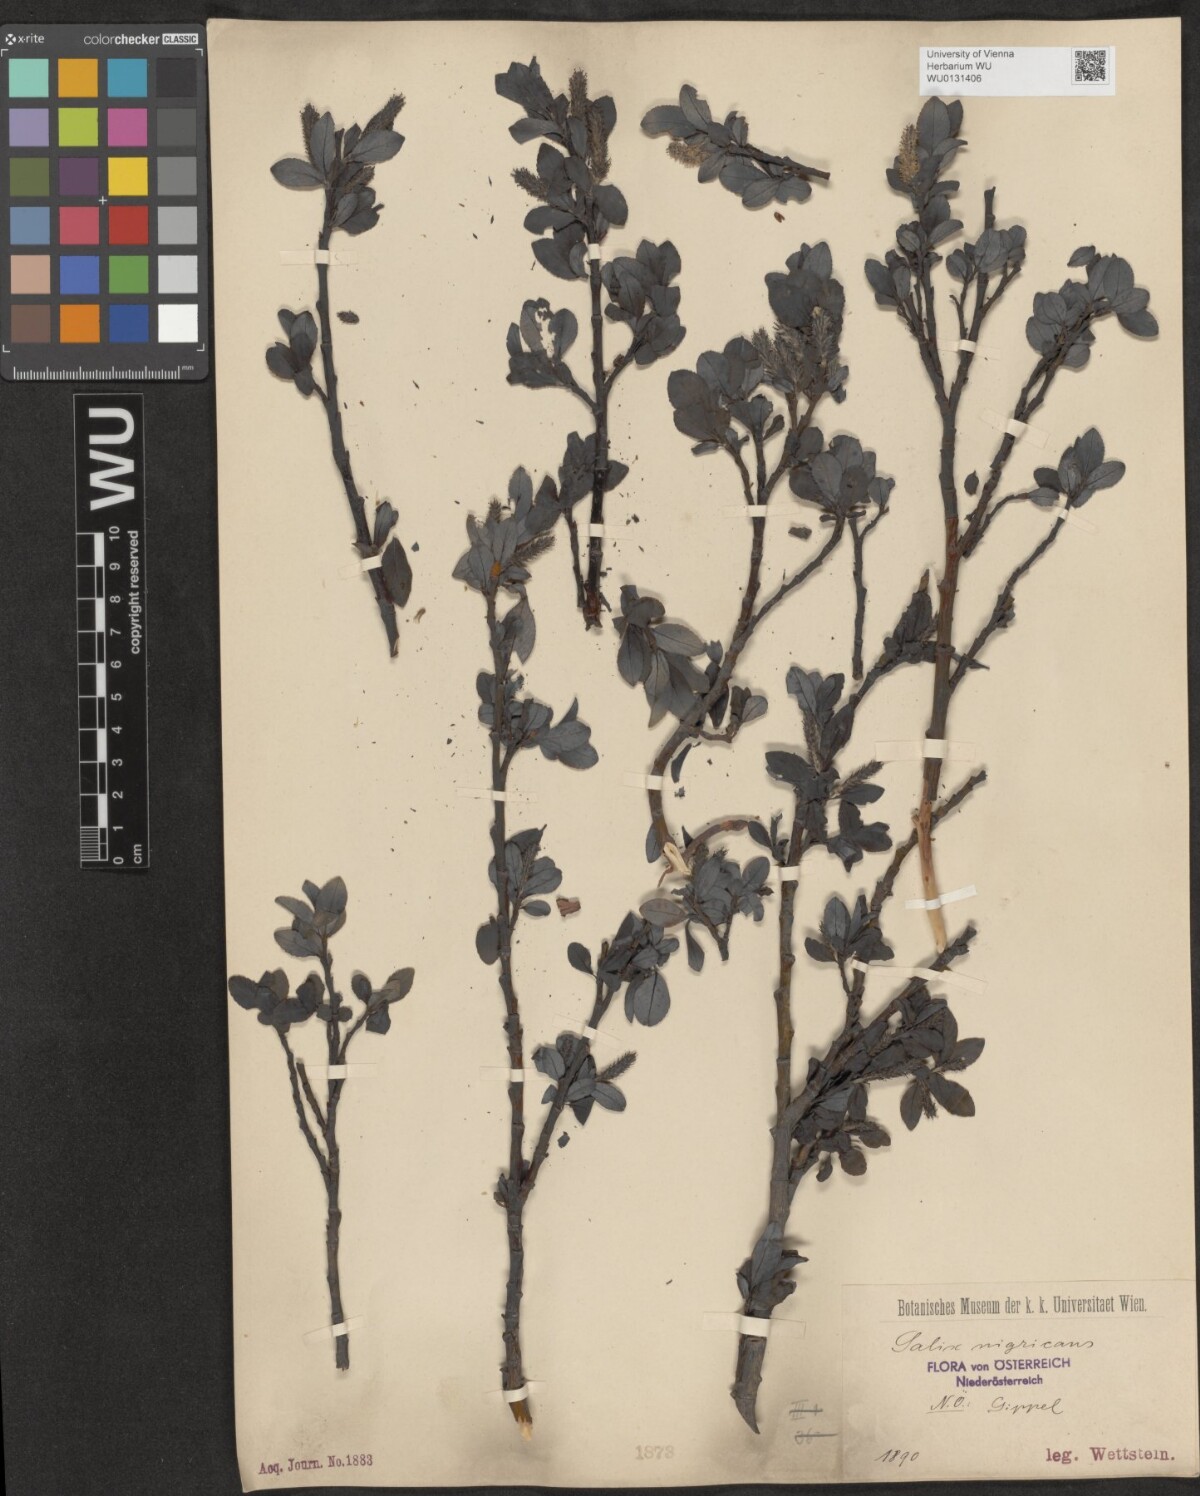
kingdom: Plantae
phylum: Tracheophyta
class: Magnoliopsida
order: Malpighiales
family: Salicaceae
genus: Salix
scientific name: Salix myrsinifolia
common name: Dark-leaved willow
